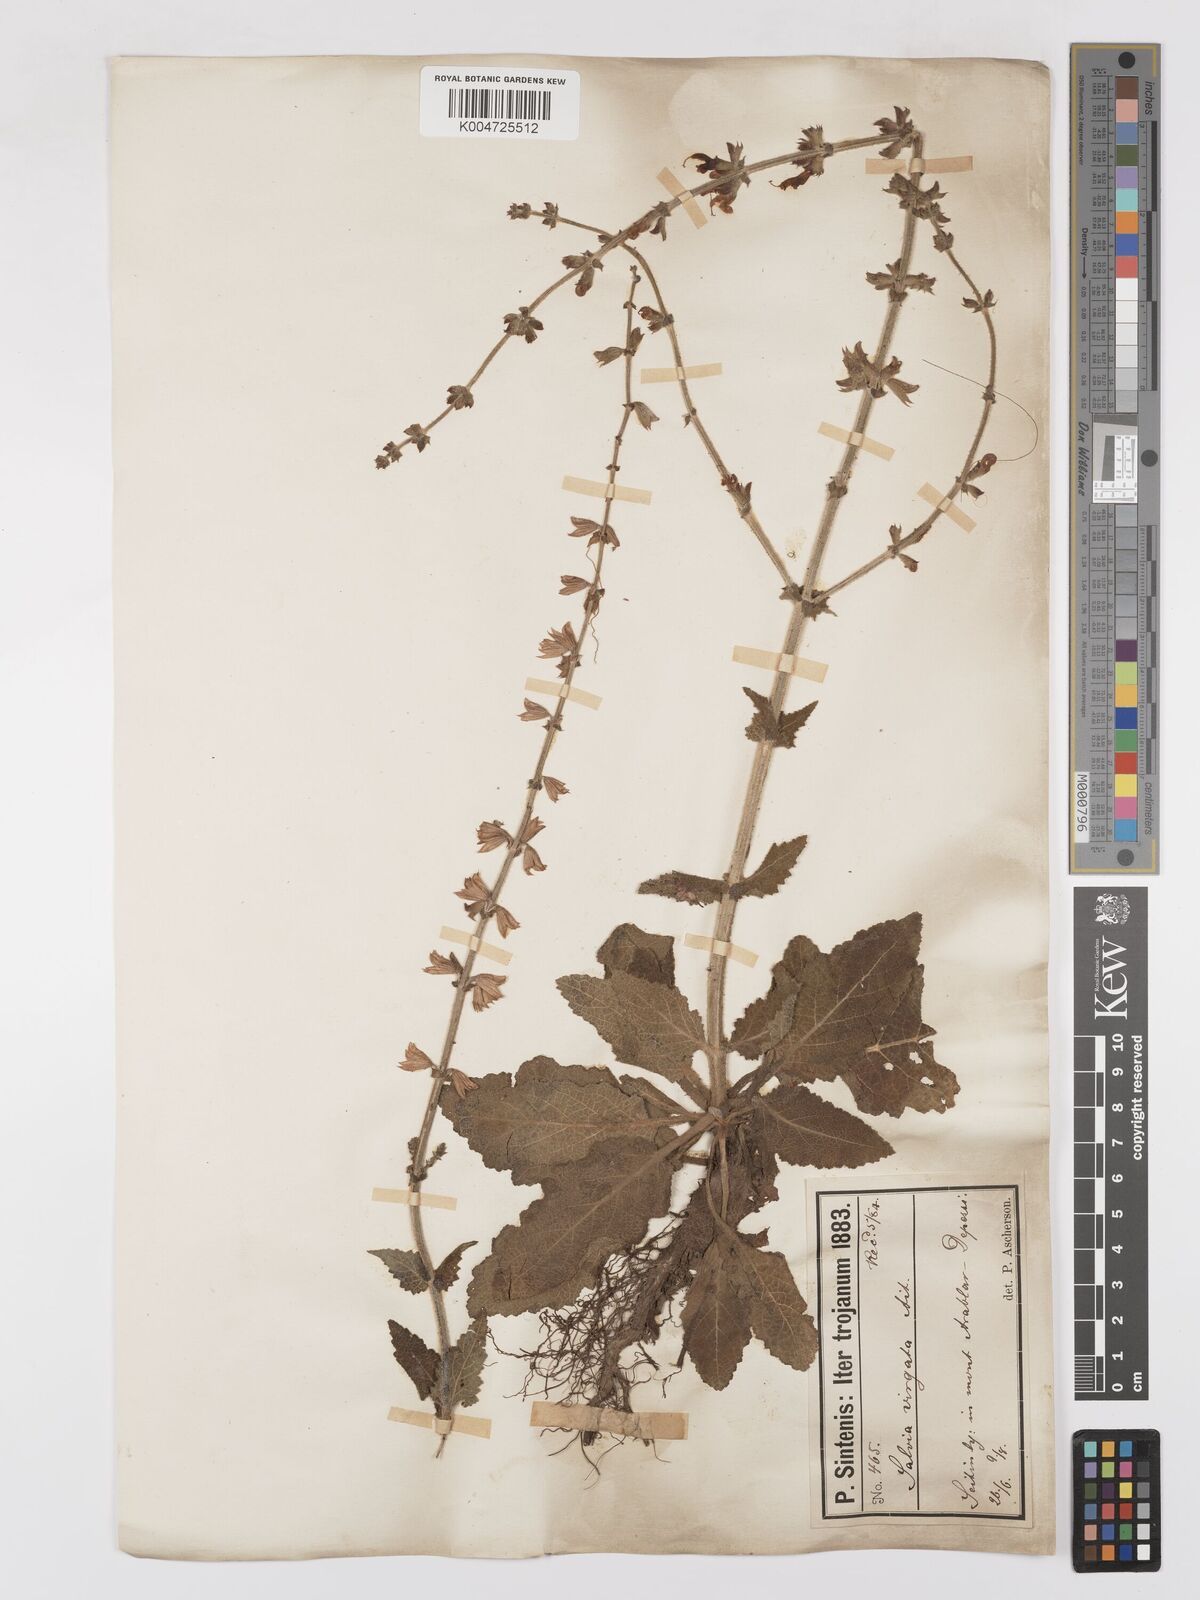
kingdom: Plantae
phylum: Tracheophyta
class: Magnoliopsida
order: Lamiales
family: Lamiaceae
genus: Salvia
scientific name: Salvia
